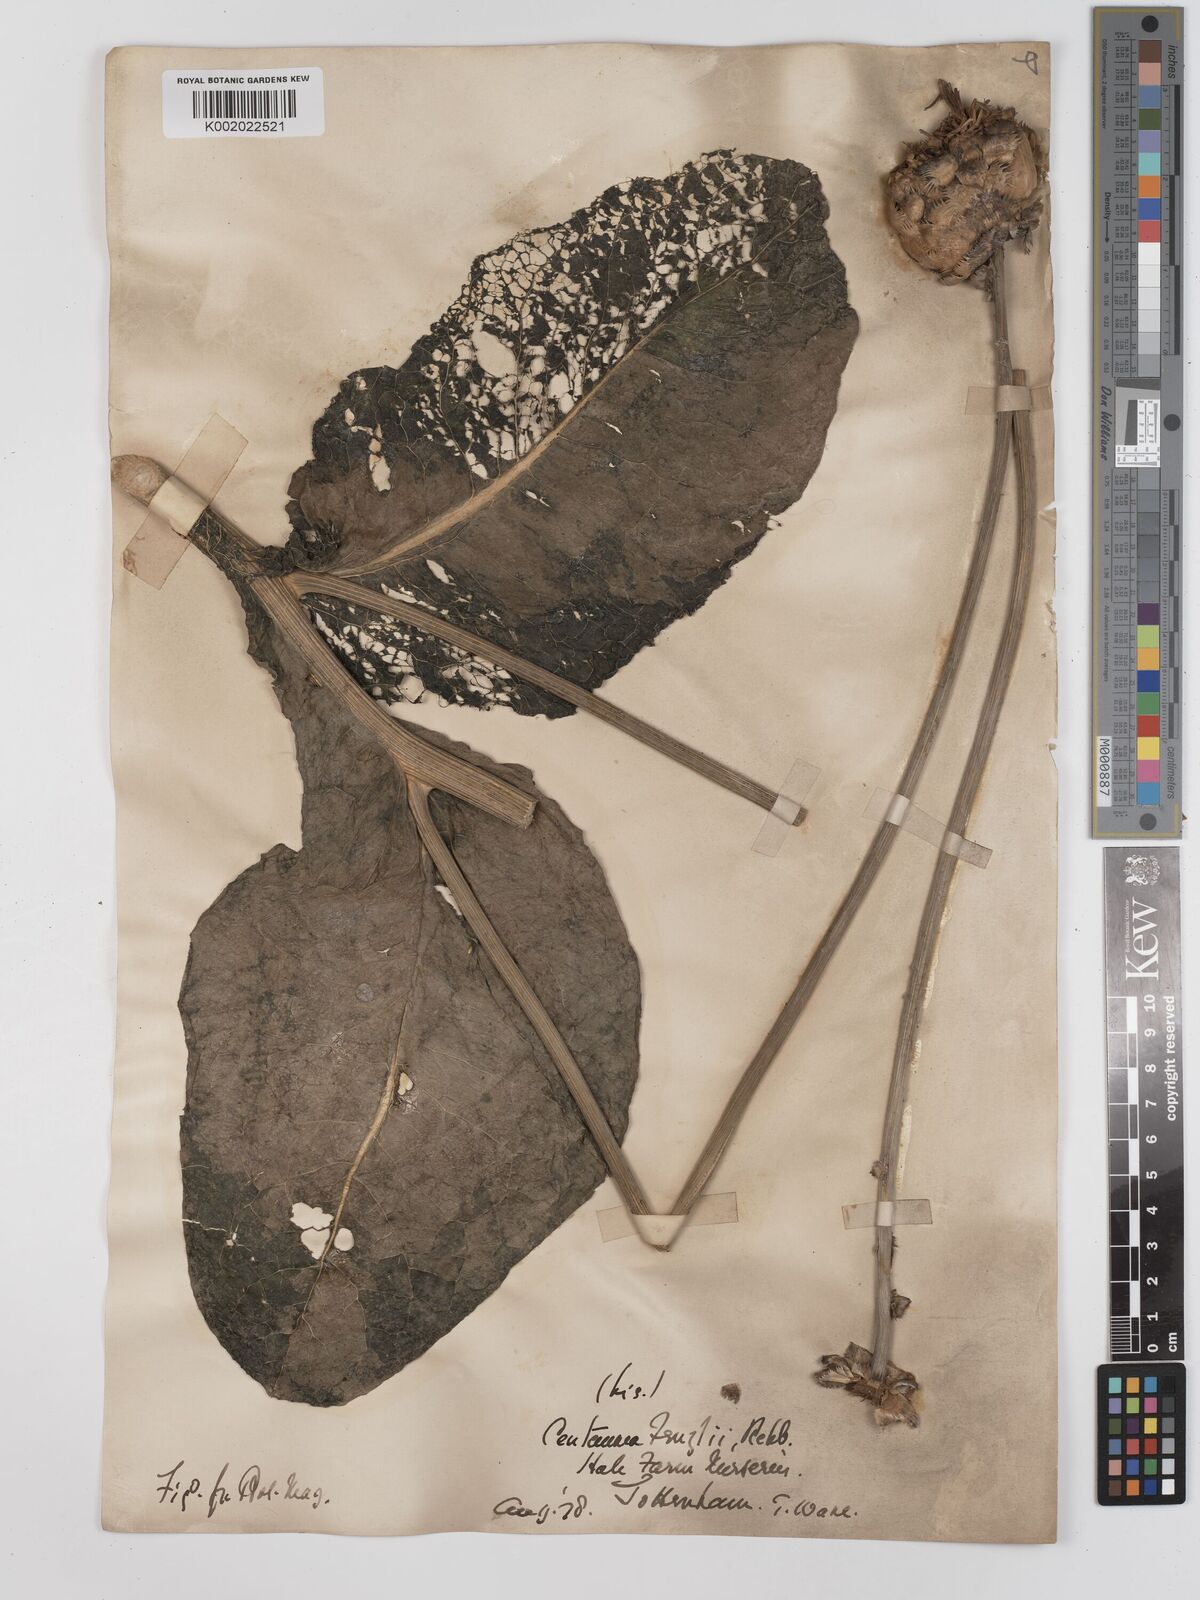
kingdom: Plantae
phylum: Tracheophyta
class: Magnoliopsida
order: Asterales
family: Asteraceae
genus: Centaurea
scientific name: Centaurea fenzlii
